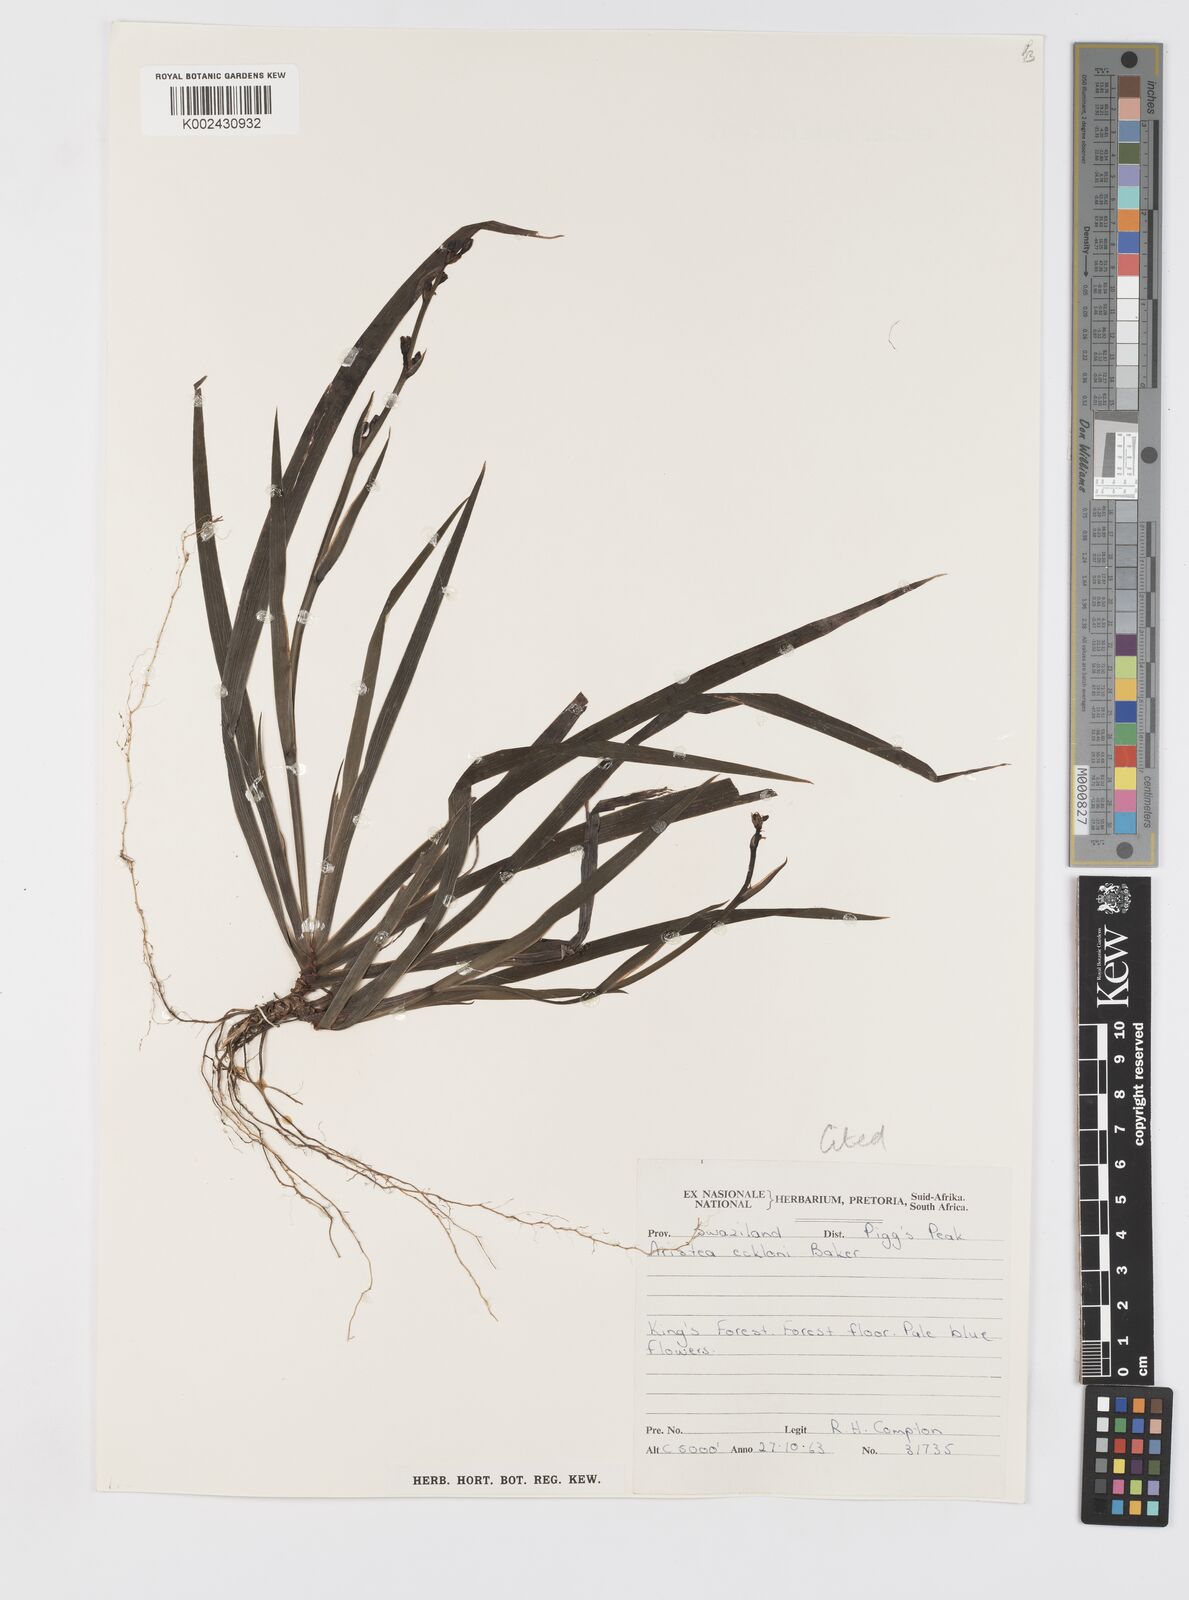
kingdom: Plantae
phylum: Tracheophyta
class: Liliopsida
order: Asparagales
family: Iridaceae
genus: Aristea
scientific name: Aristea ecklonii
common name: Blue corn-lily
